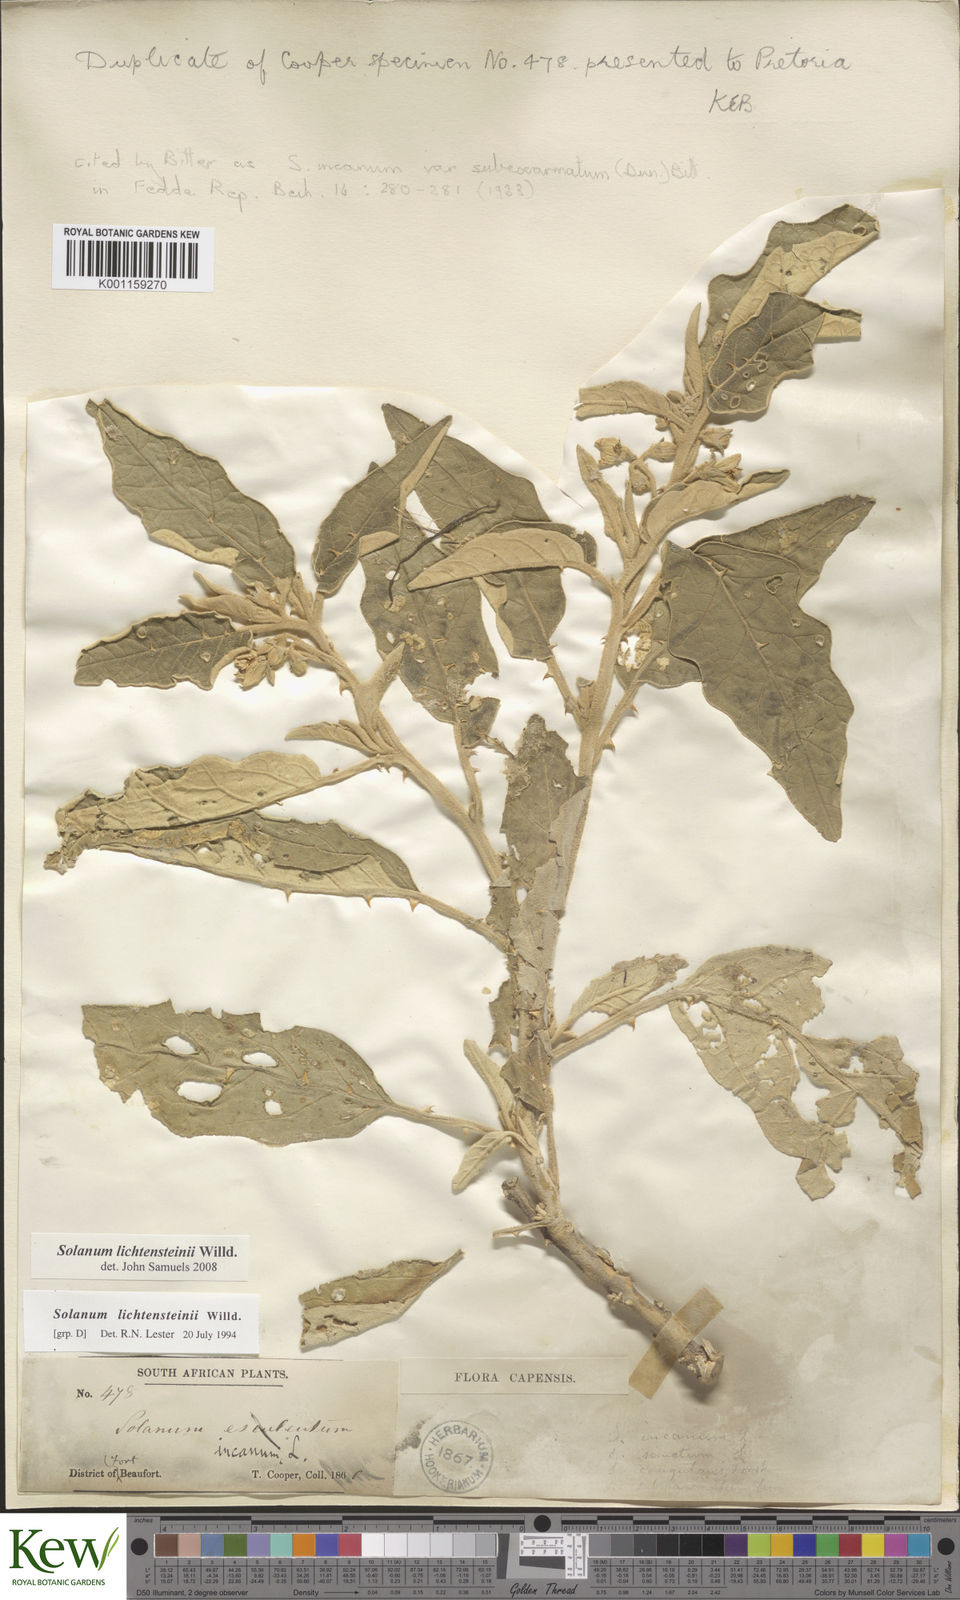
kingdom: Plantae
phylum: Tracheophyta
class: Magnoliopsida
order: Solanales
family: Solanaceae
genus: Solanum
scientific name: Solanum lichtensteinii
